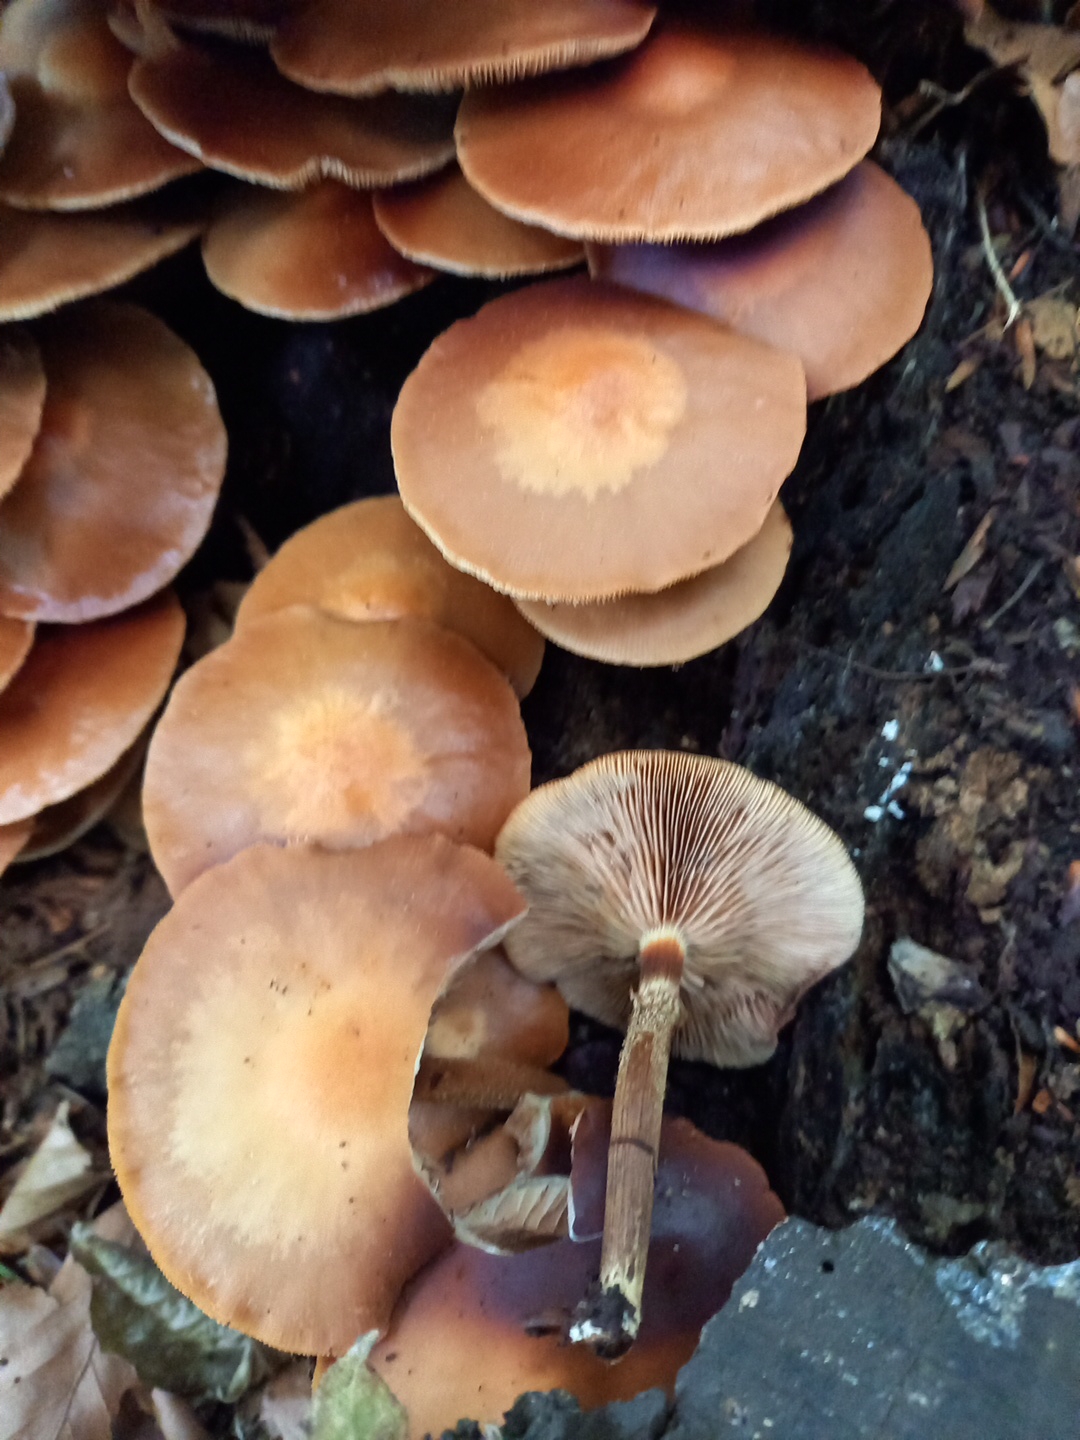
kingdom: Fungi
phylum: Basidiomycota
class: Agaricomycetes
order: Agaricales
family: Strophariaceae
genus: Kuehneromyces
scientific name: Kuehneromyces mutabilis
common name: foranderlig skælhat
